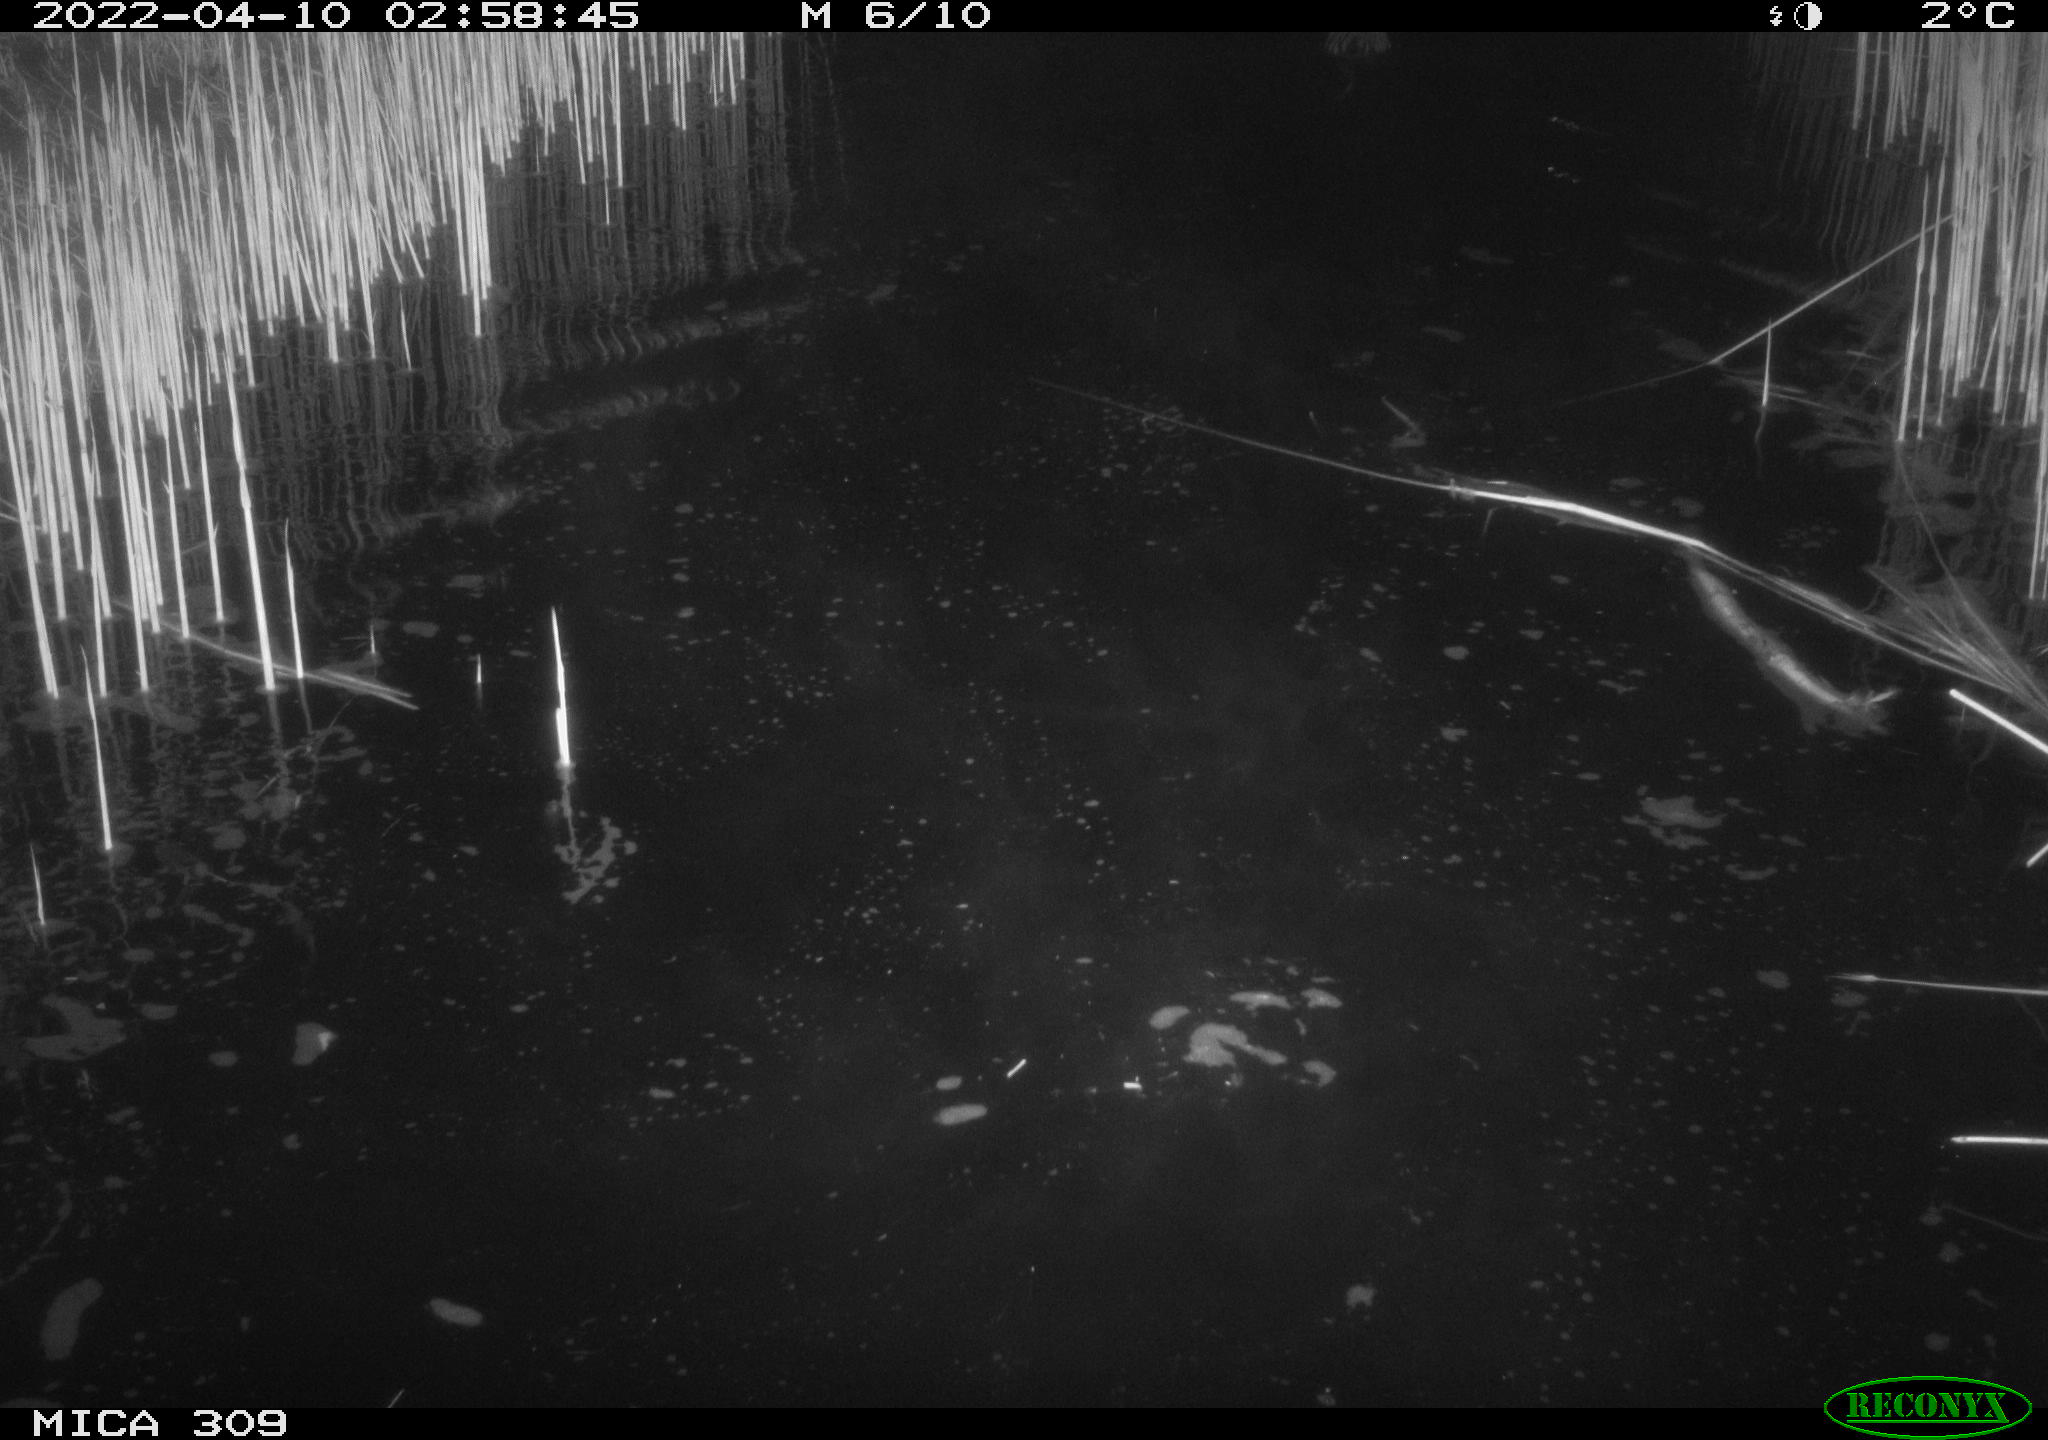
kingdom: Animalia
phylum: Chordata
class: Mammalia
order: Rodentia
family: Cricetidae
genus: Ondatra
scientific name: Ondatra zibethicus
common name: Muskrat
